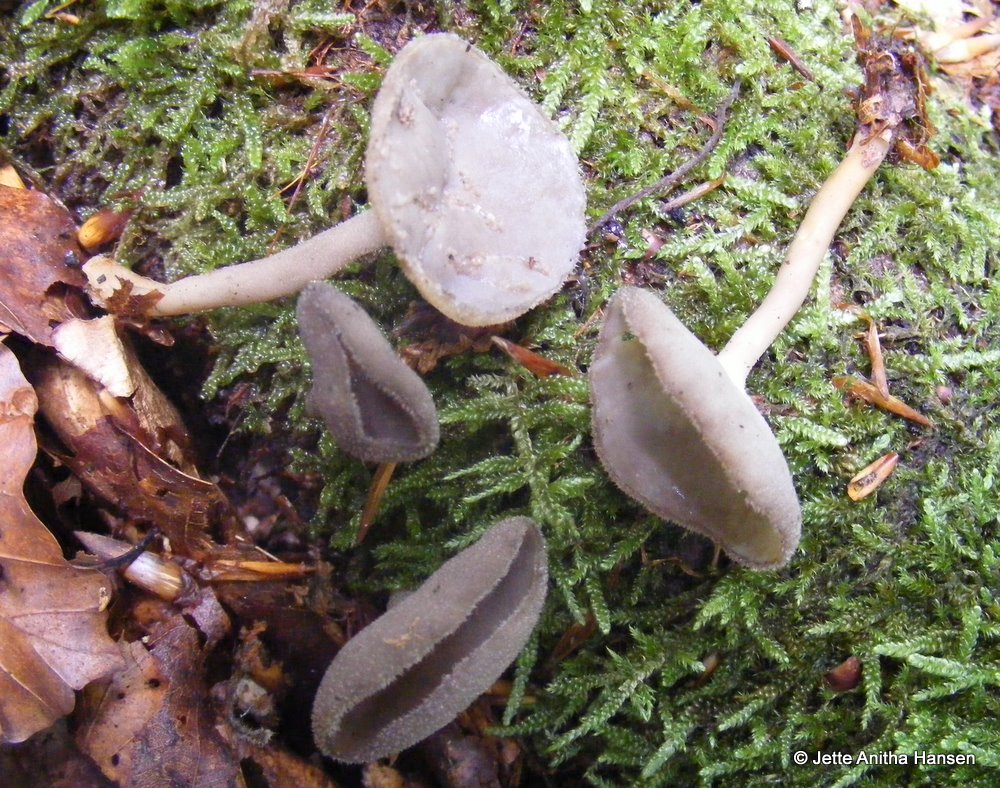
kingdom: Fungi
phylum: Ascomycota
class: Pezizomycetes
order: Pezizales
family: Helvellaceae
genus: Helvella
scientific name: Helvella macropus
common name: højstokket foldhat
